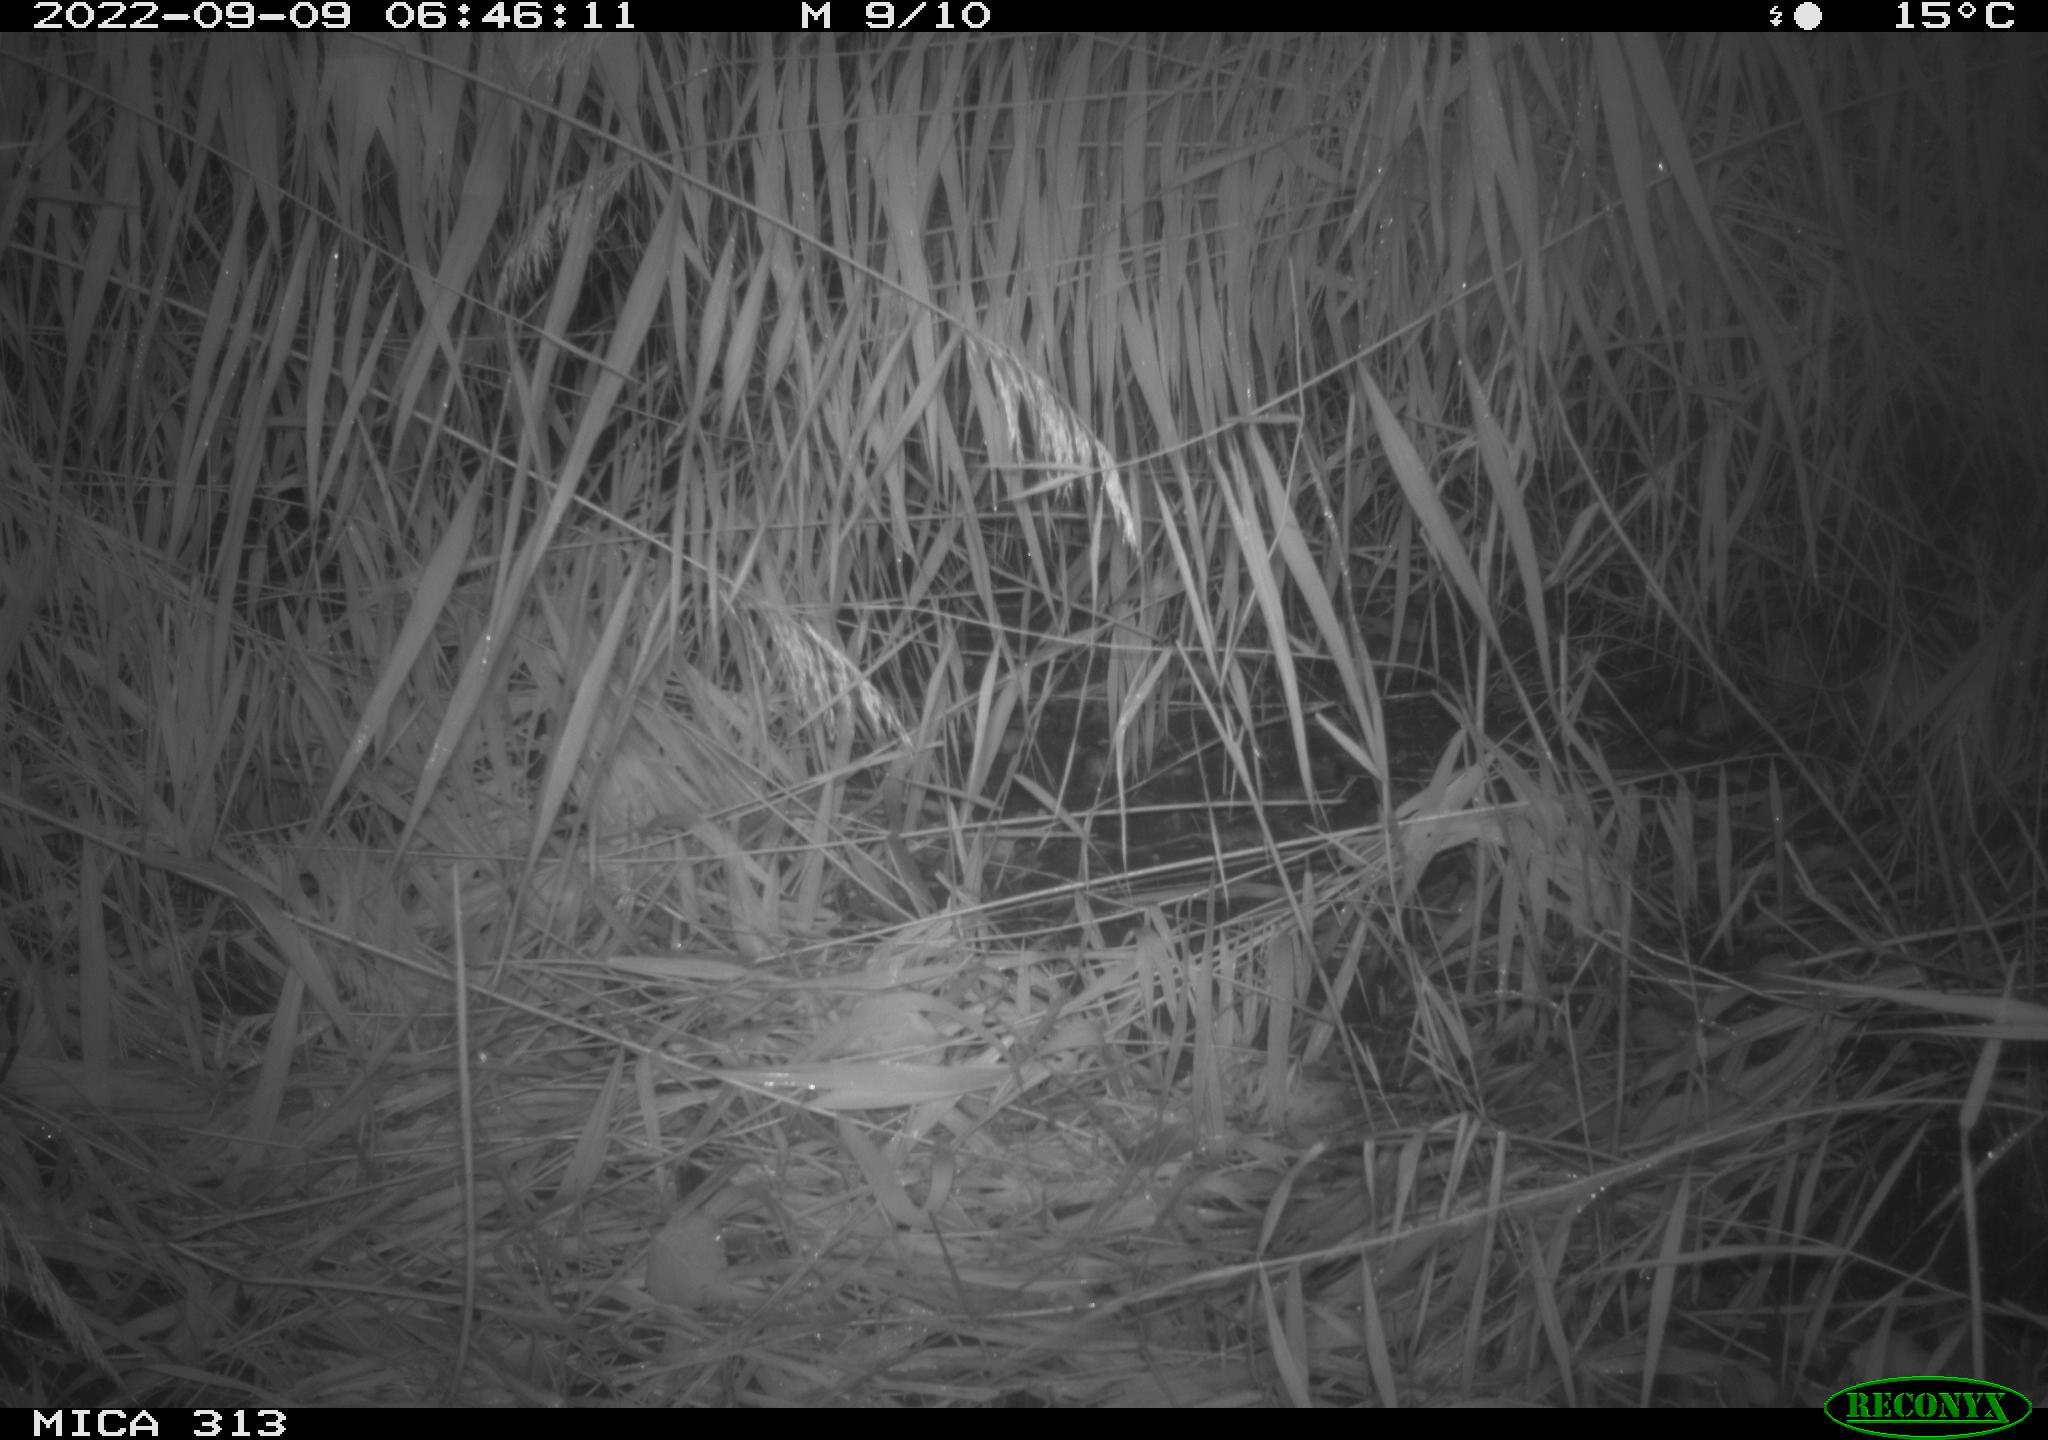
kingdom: Animalia
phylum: Chordata
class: Mammalia
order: Rodentia
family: Muridae
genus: Rattus
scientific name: Rattus norvegicus
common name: Brown rat
